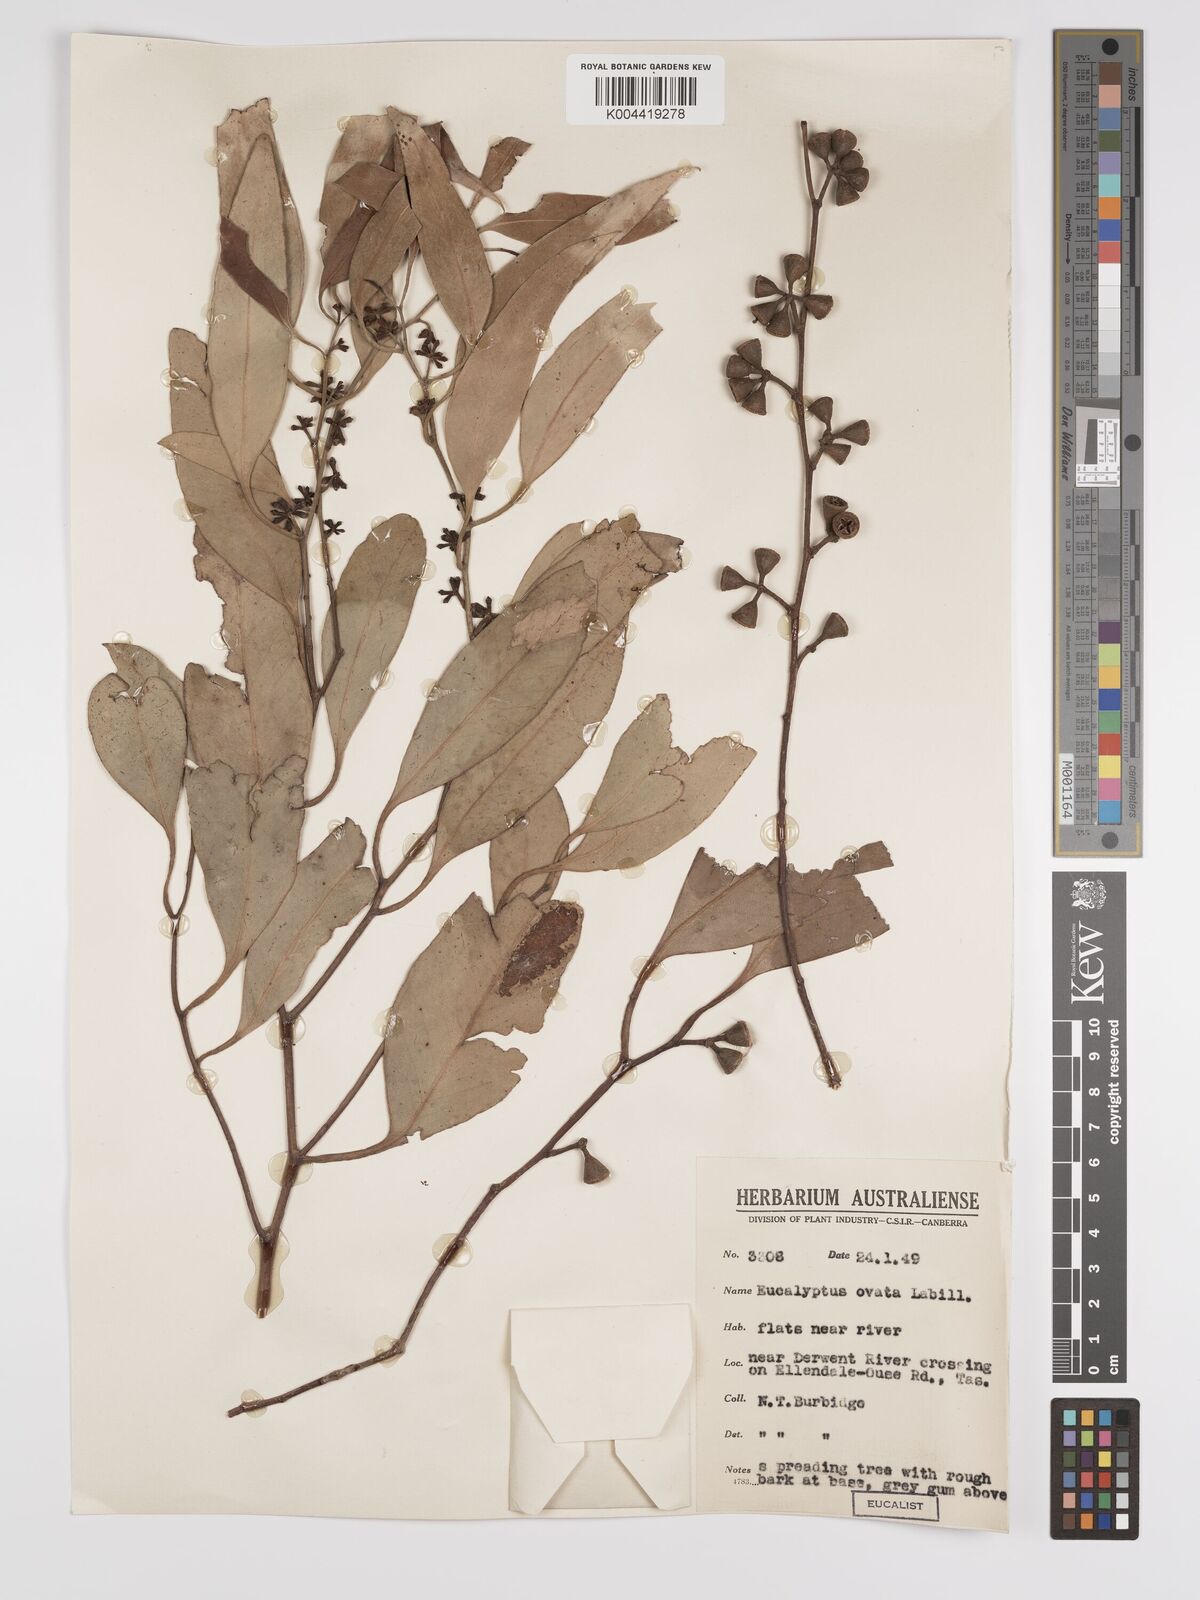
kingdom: Plantae
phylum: Tracheophyta
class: Magnoliopsida
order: Myrtales
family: Myrtaceae
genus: Eucalyptus
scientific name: Eucalyptus ovata
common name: Black-gum
